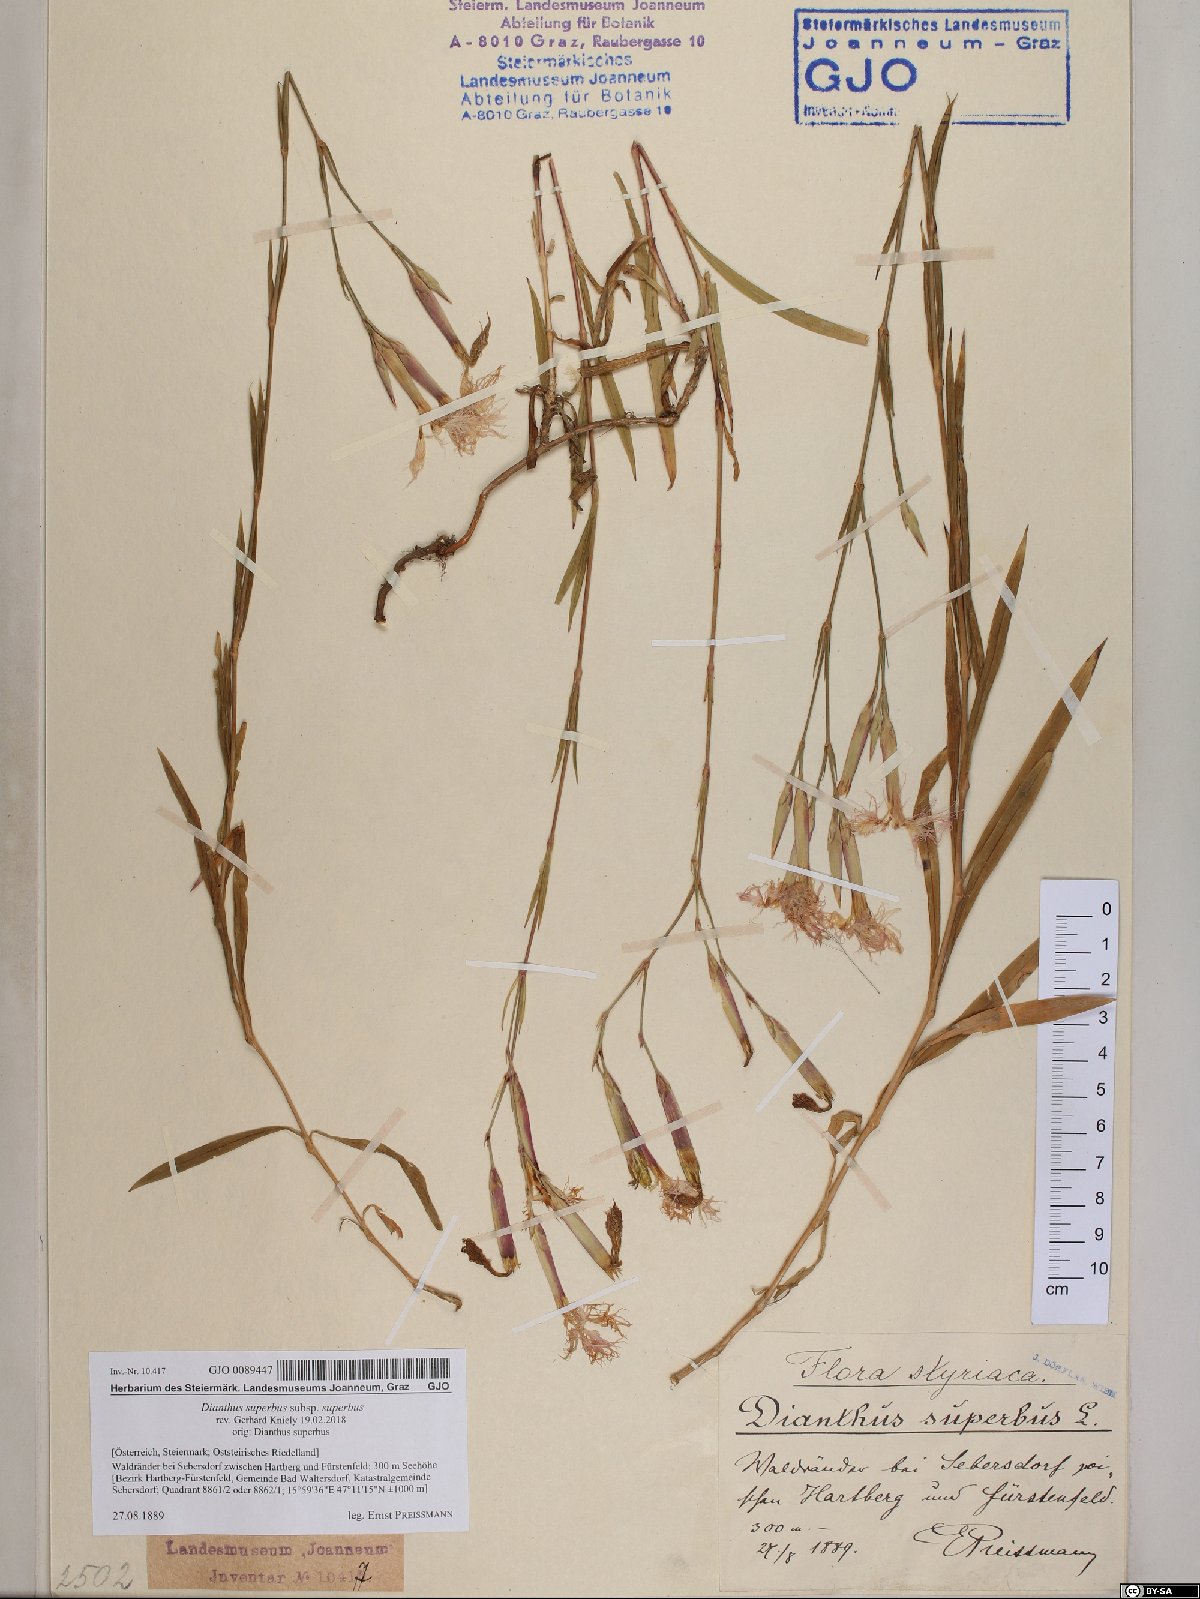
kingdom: Plantae
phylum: Tracheophyta
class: Magnoliopsida
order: Caryophyllales
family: Caryophyllaceae
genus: Dianthus
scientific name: Dianthus superbus
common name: Fringed pink
